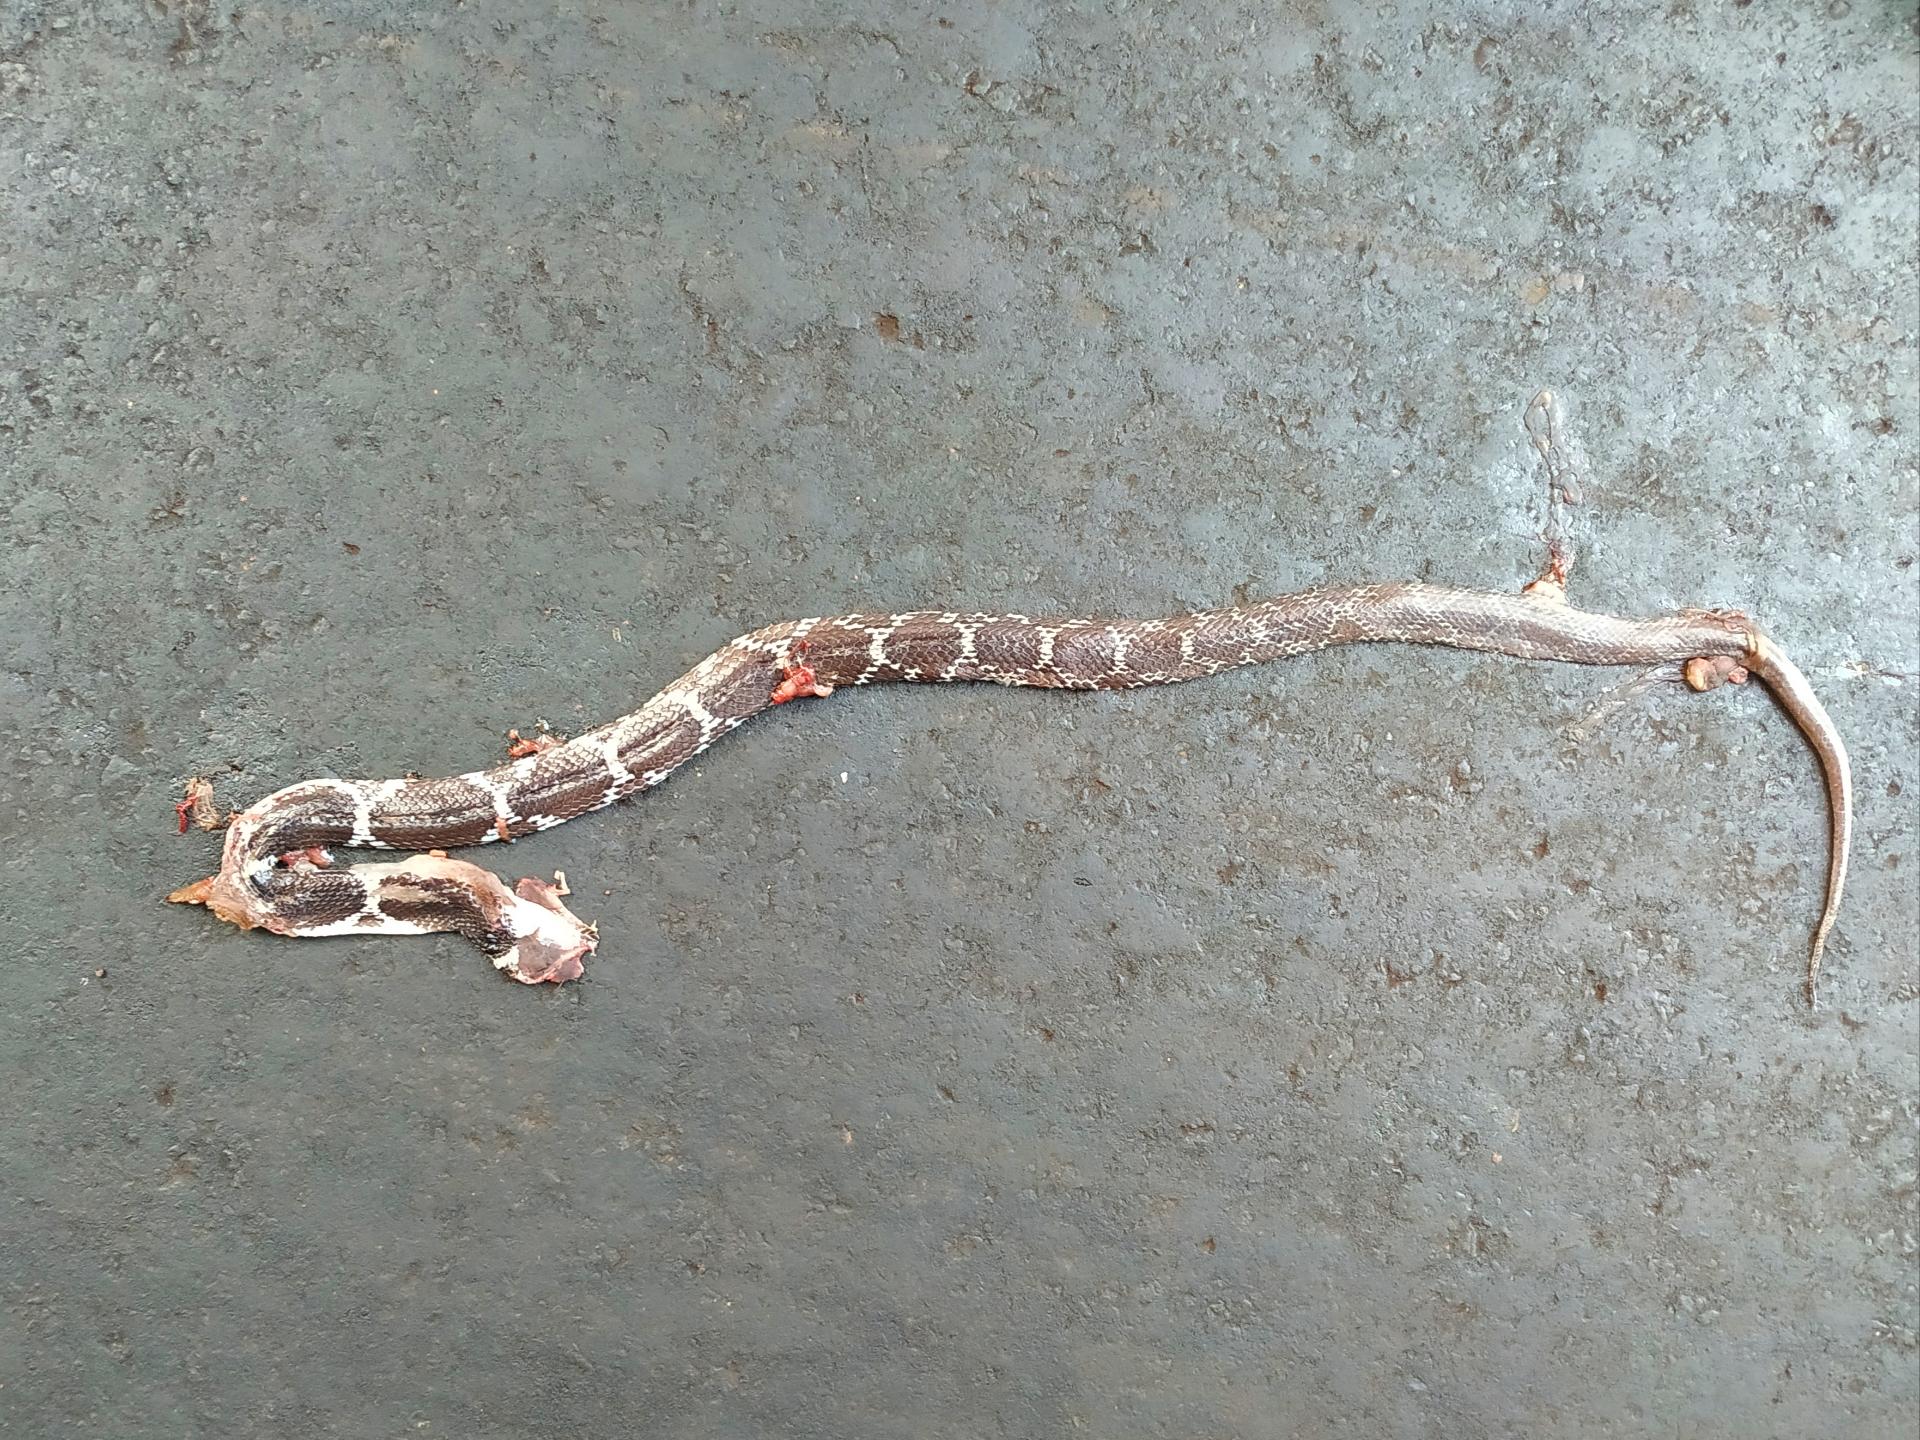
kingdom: Animalia
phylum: Chordata
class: Squamata
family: Colubridae
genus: Lycodon
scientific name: Lycodon
